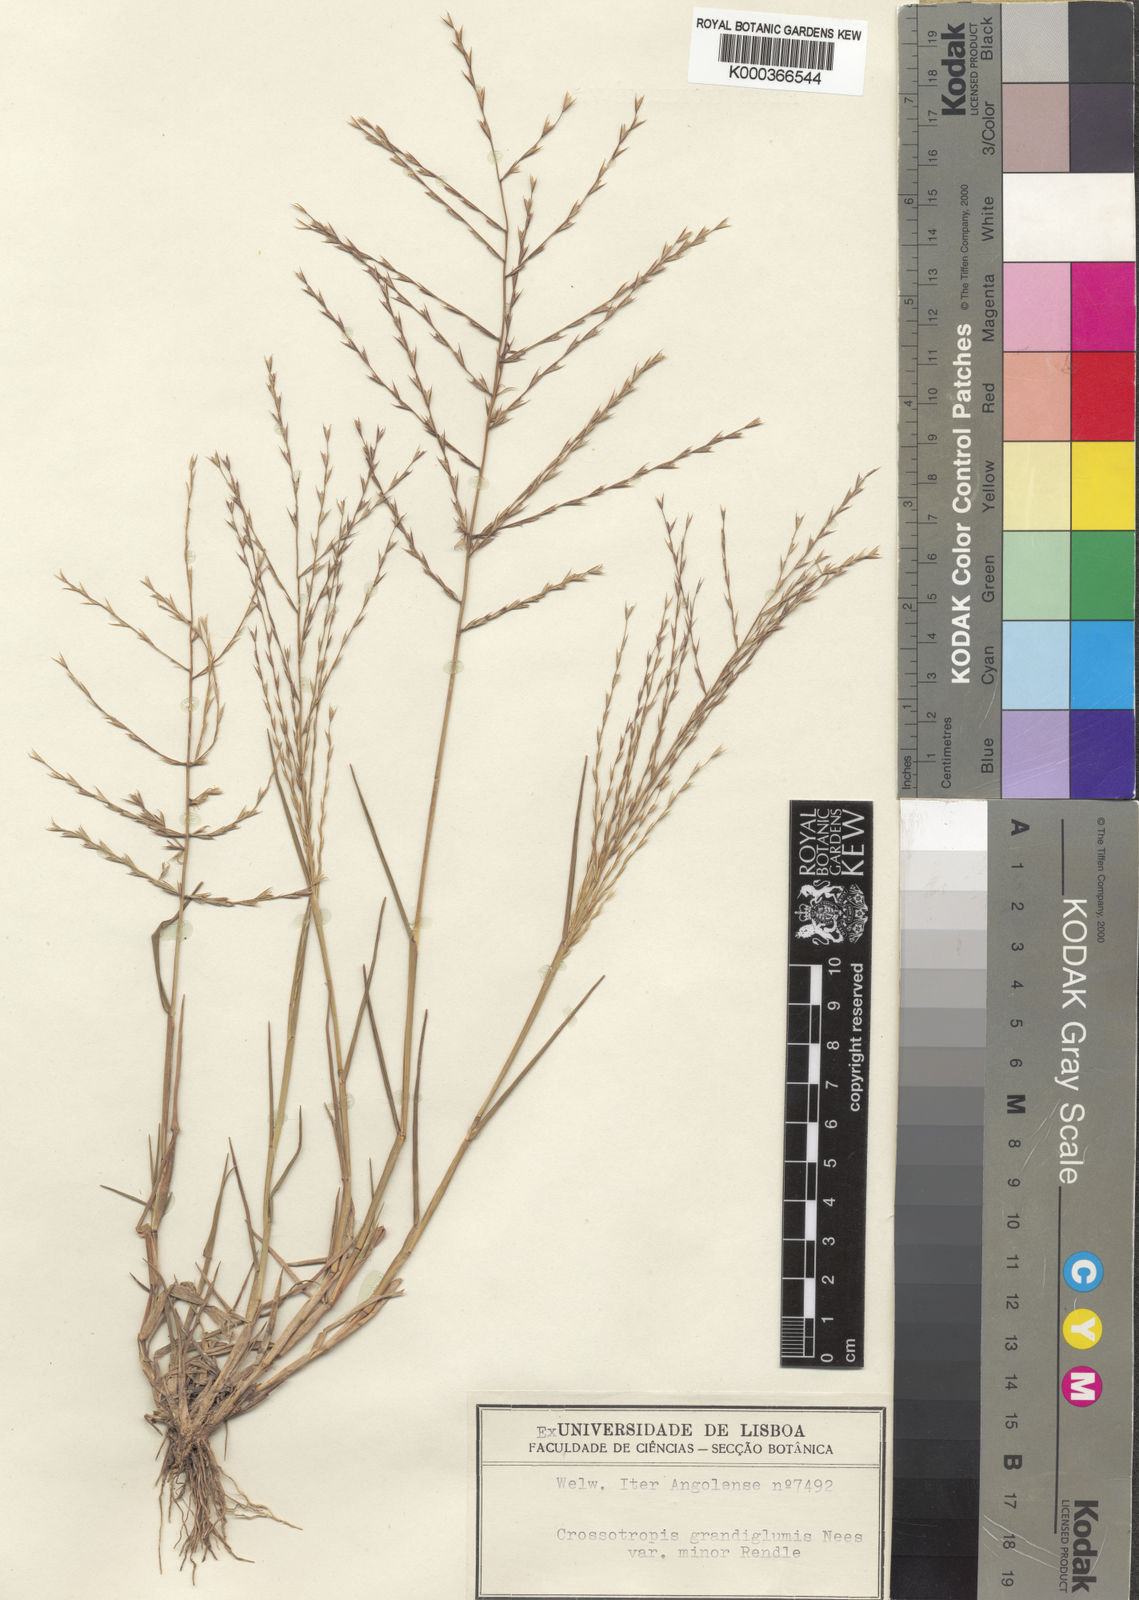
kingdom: Plantae
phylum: Tracheophyta
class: Liliopsida
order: Poales
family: Poaceae
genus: Trichoneura
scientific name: Trichoneura grandiglumis
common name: Rolling grass
